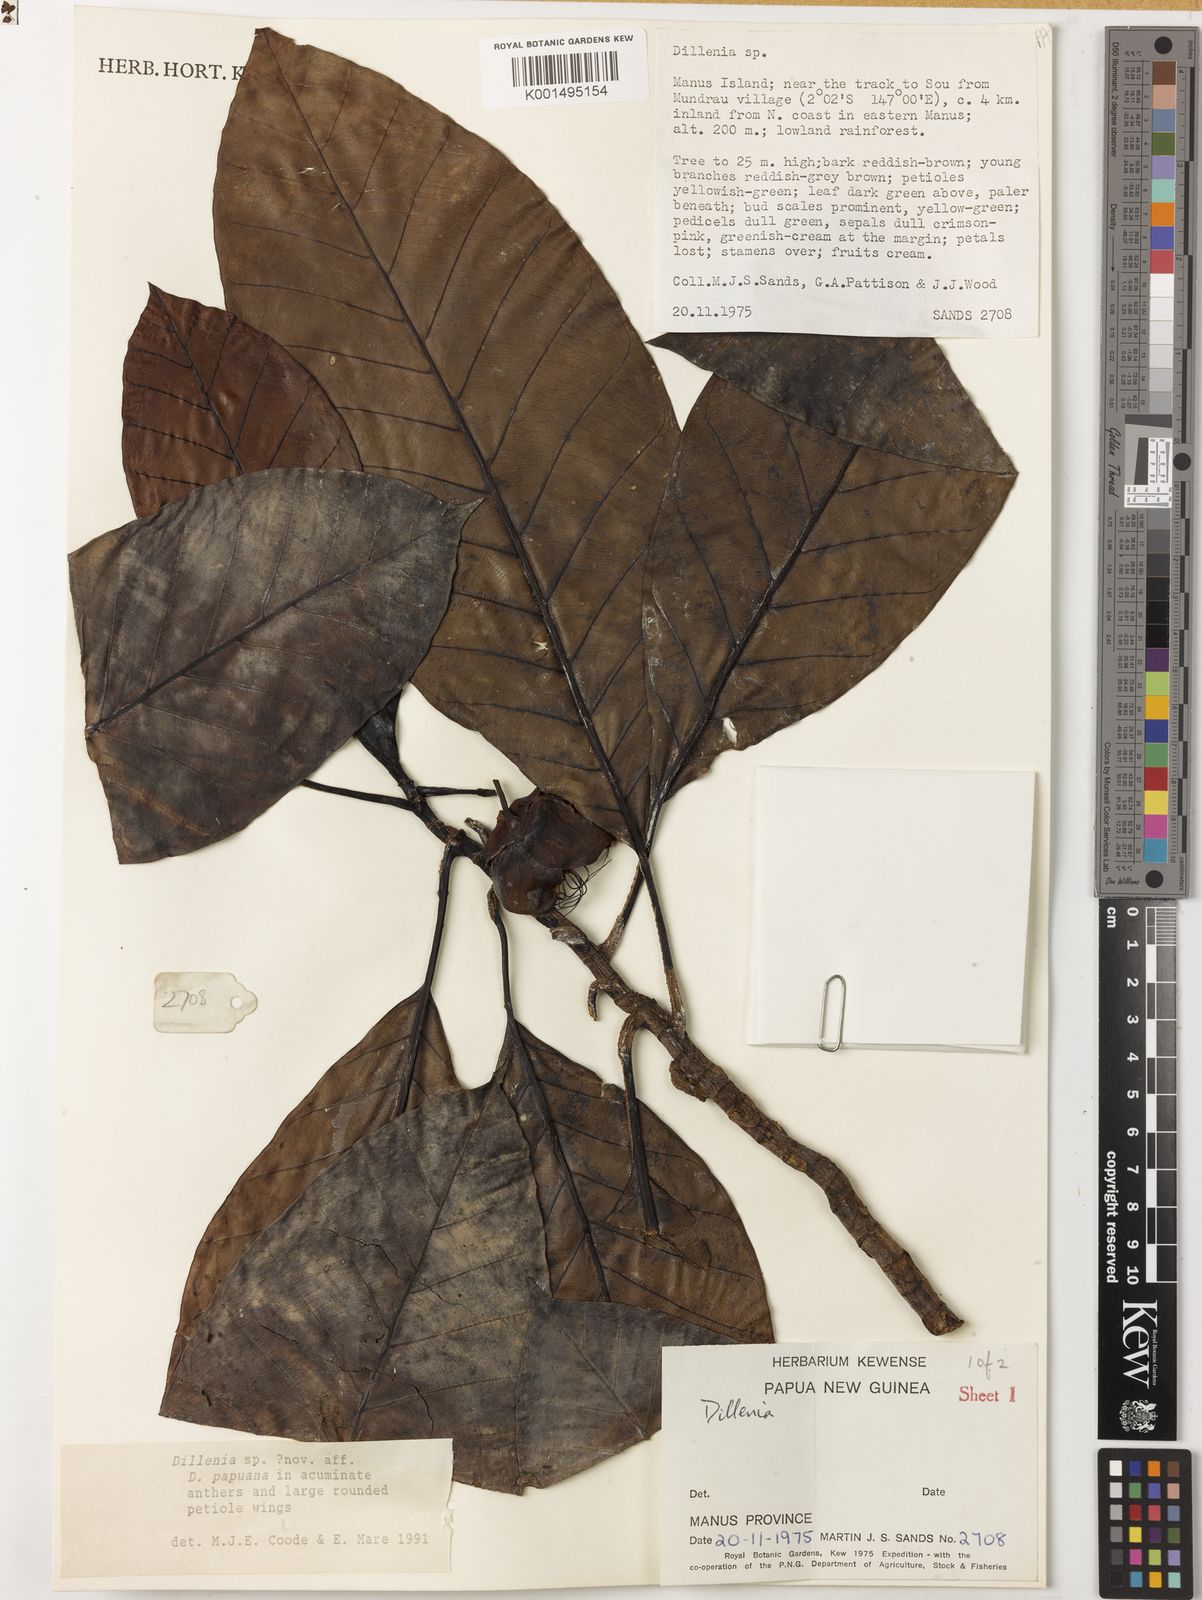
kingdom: Plantae
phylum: Tracheophyta
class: Magnoliopsida
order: Dilleniales
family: Dilleniaceae
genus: Dillenia
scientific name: Dillenia
